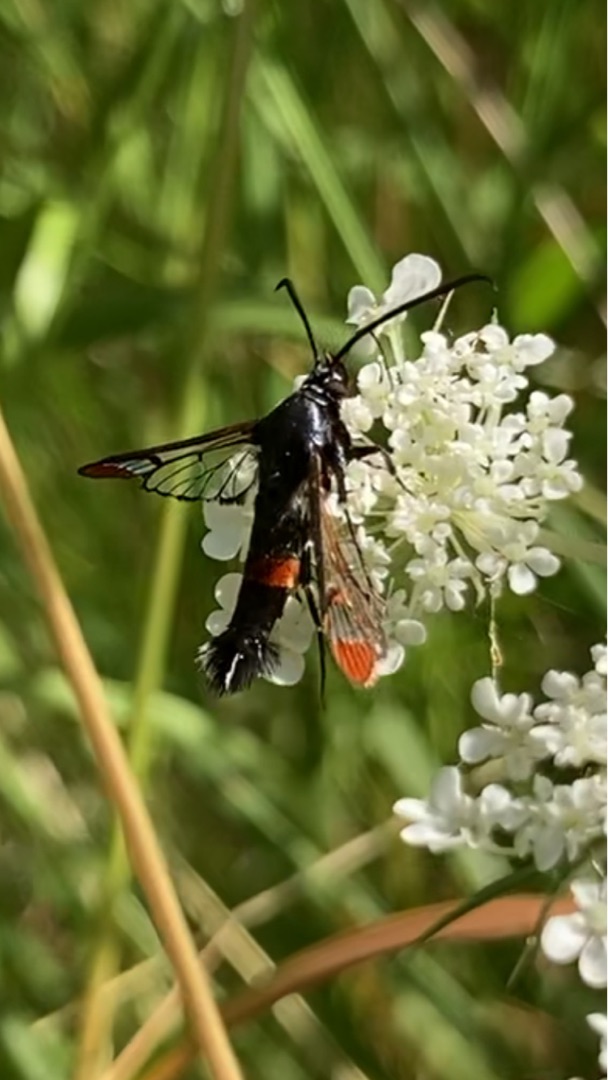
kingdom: Animalia
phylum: Arthropoda
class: Insecta
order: Lepidoptera
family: Sesiidae
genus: Synanthedon
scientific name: Synanthedon formicaeformis
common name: Rødspidset glassværmer
